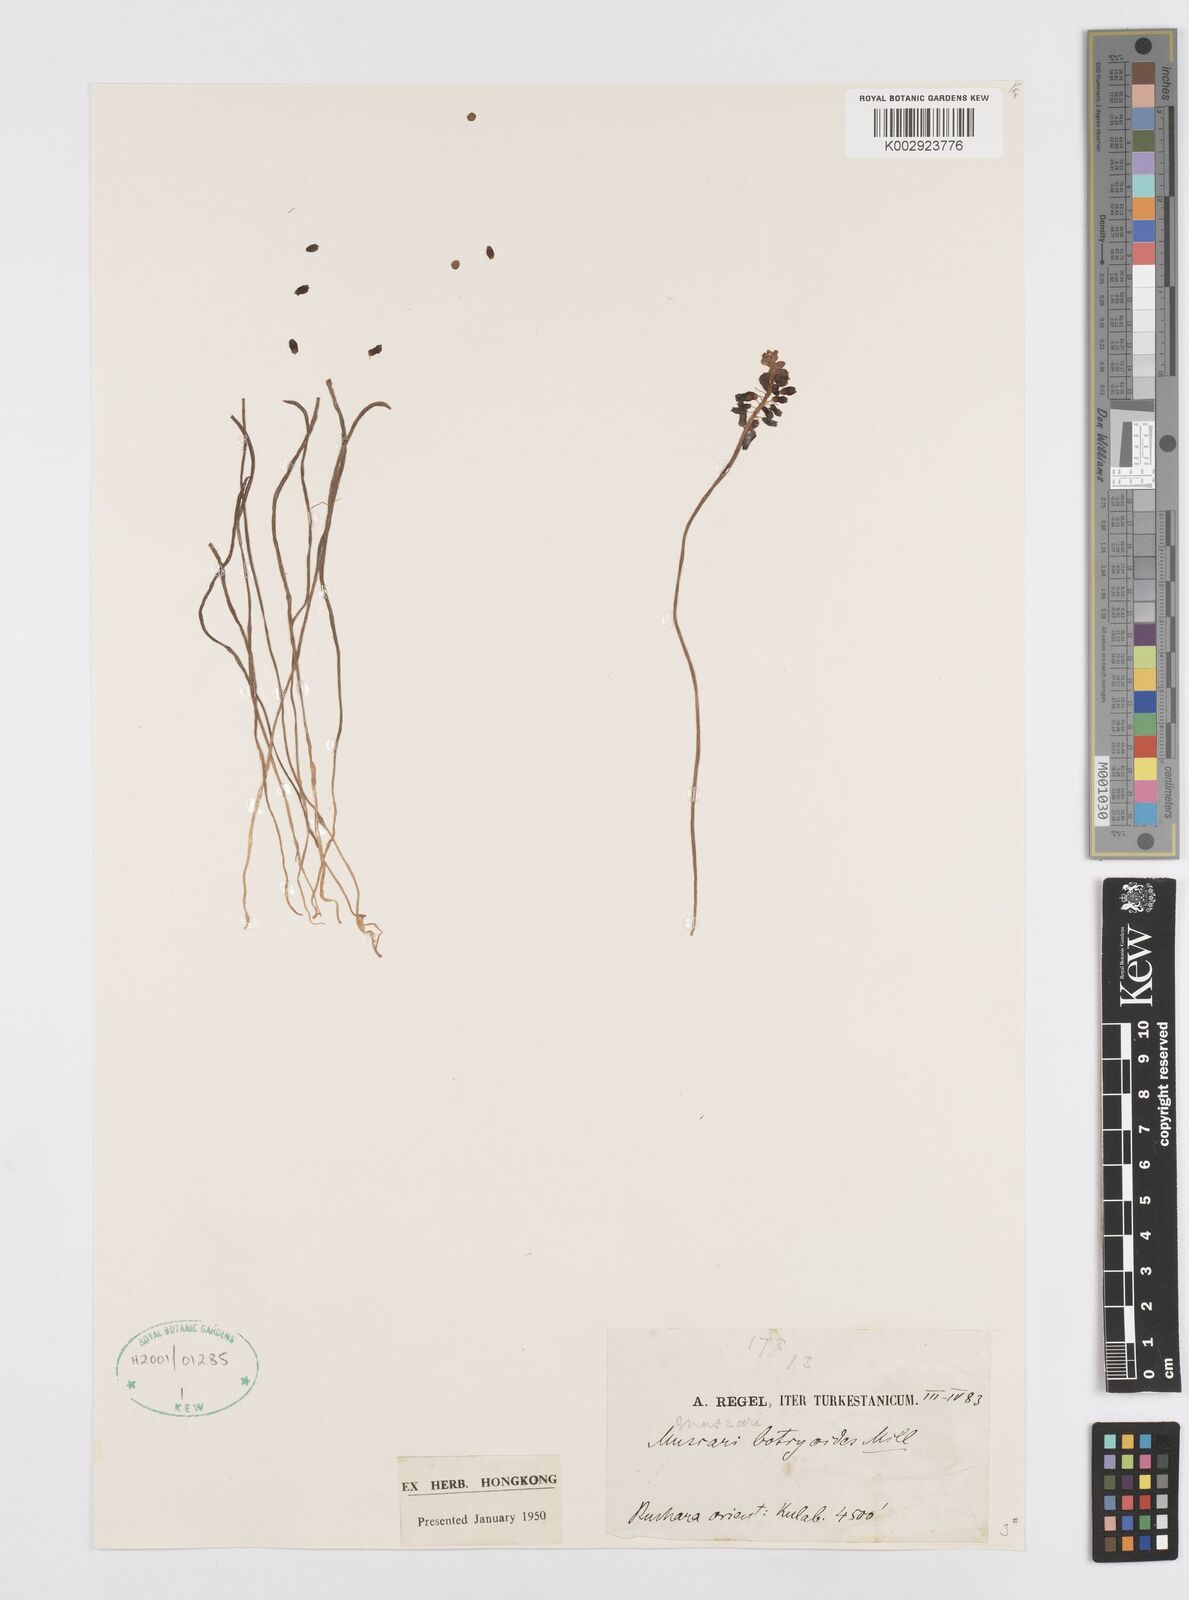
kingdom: Plantae
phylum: Tracheophyta
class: Liliopsida
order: Asparagales
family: Asparagaceae
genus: Muscari
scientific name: Muscari
